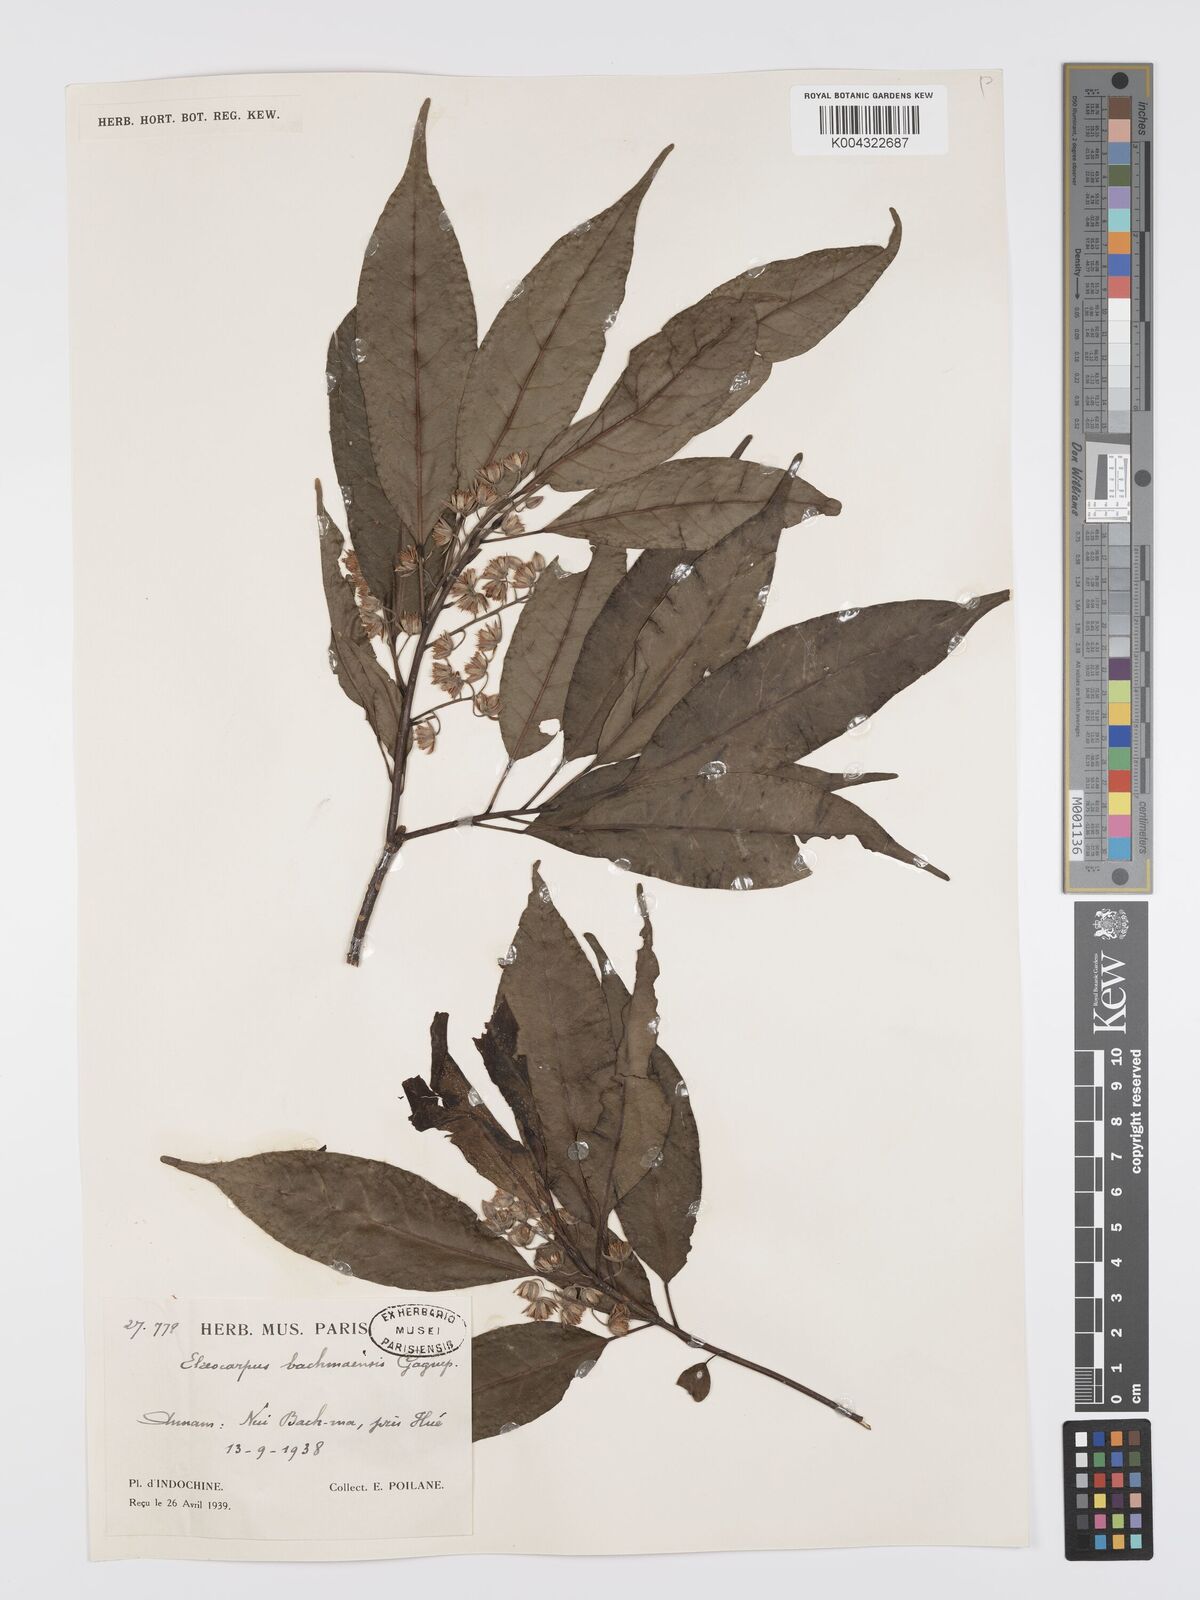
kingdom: Plantae
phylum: Tracheophyta
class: Magnoliopsida
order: Oxalidales
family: Elaeocarpaceae
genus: Elaeocarpus
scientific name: Elaeocarpus bachmaensis
